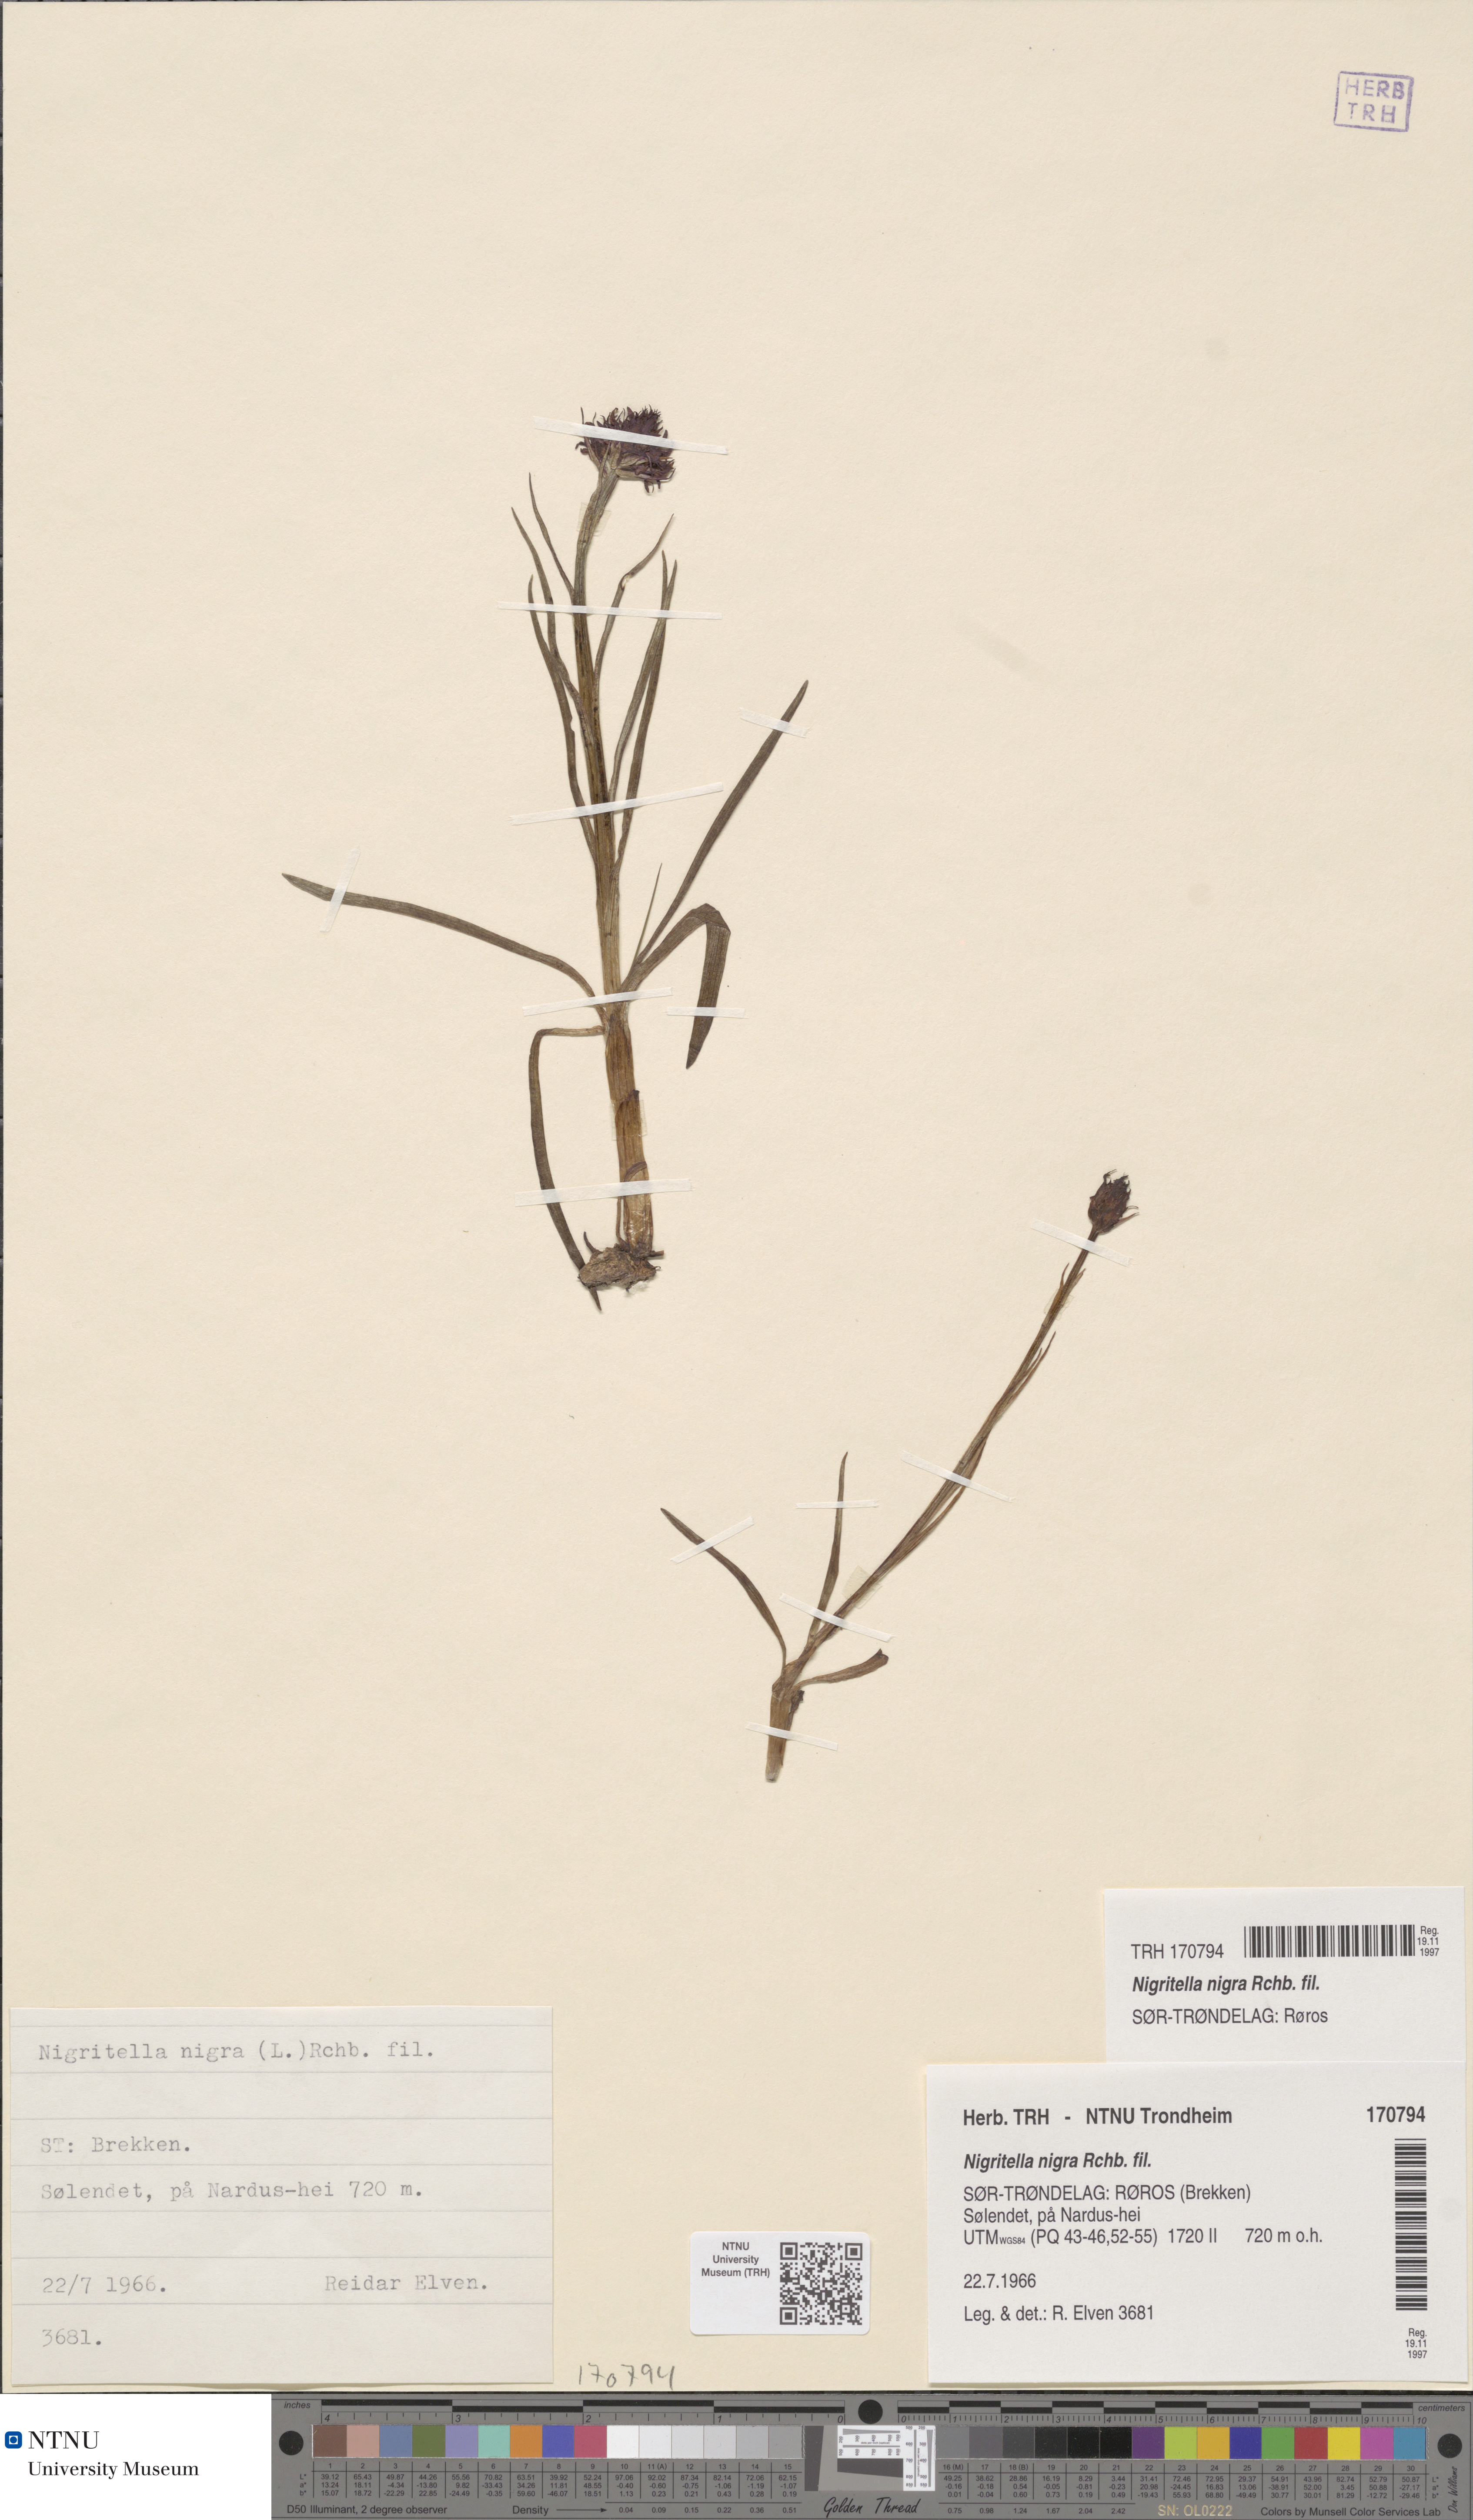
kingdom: Plantae
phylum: Tracheophyta
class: Liliopsida
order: Asparagales
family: Orchidaceae
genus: Gymnadenia
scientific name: Gymnadenia nigra
